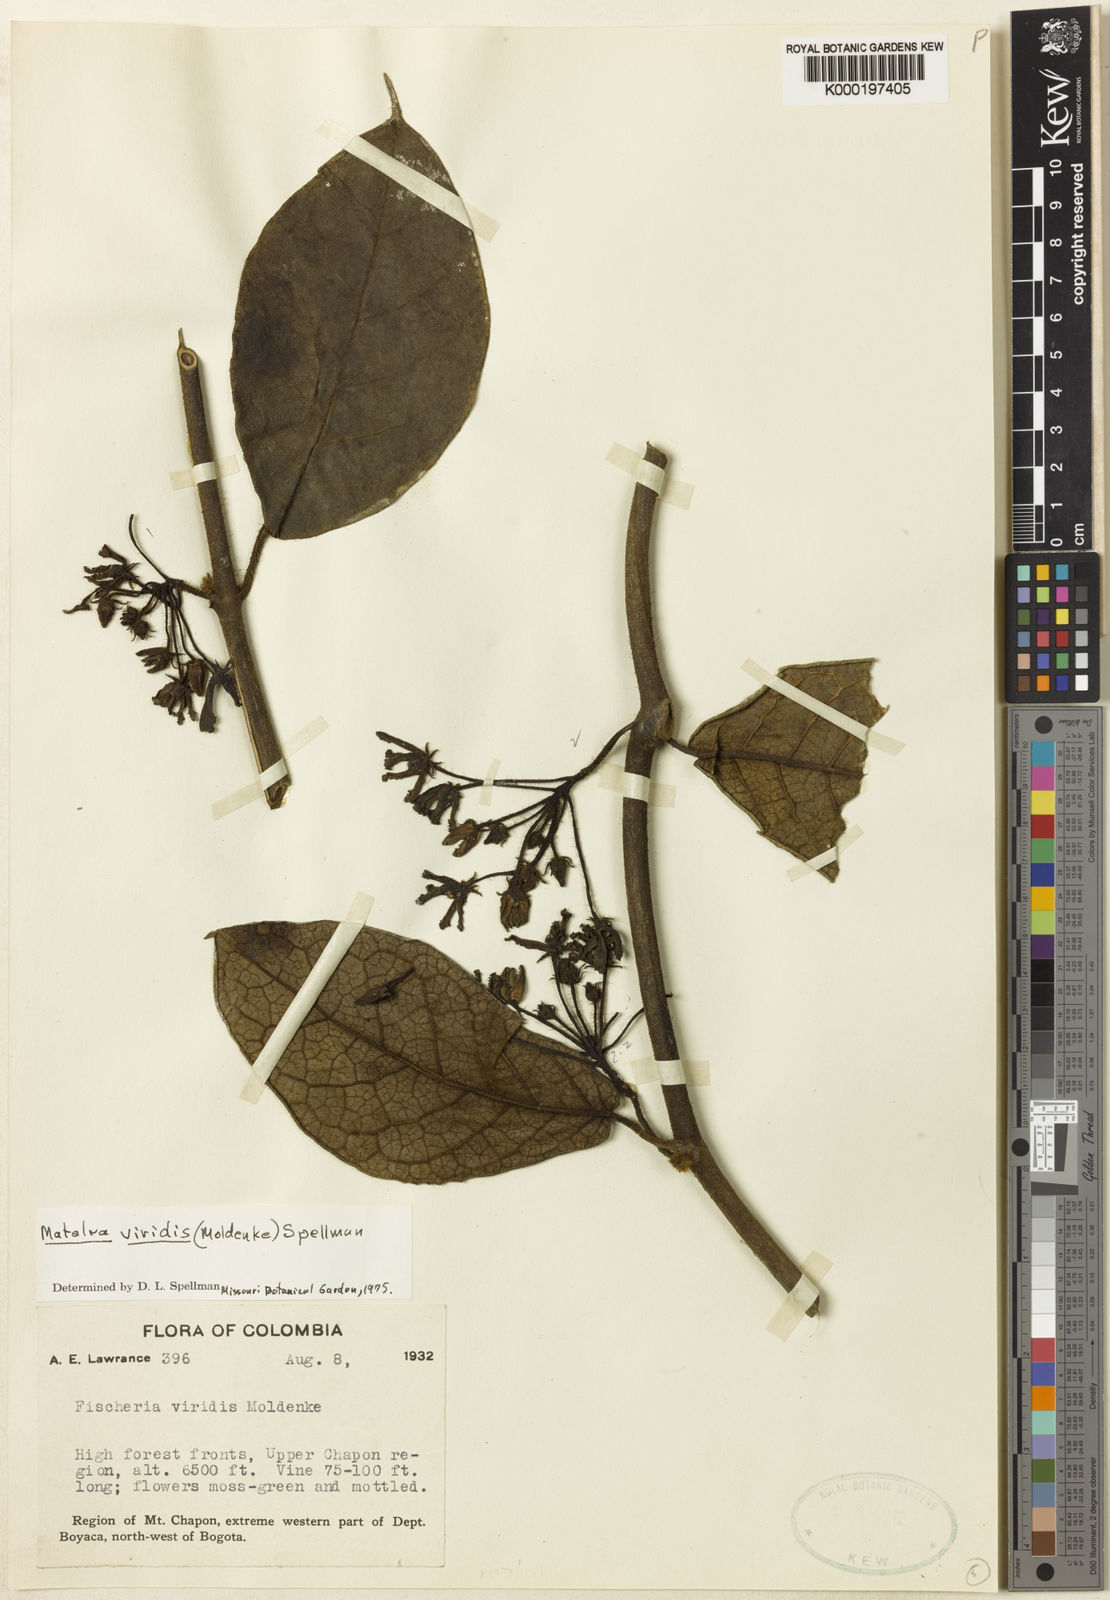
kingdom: Plantae
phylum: Tracheophyta
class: Magnoliopsida
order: Gentianales
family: Apocynaceae
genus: Rhytidostemma
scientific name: Rhytidostemma viride
